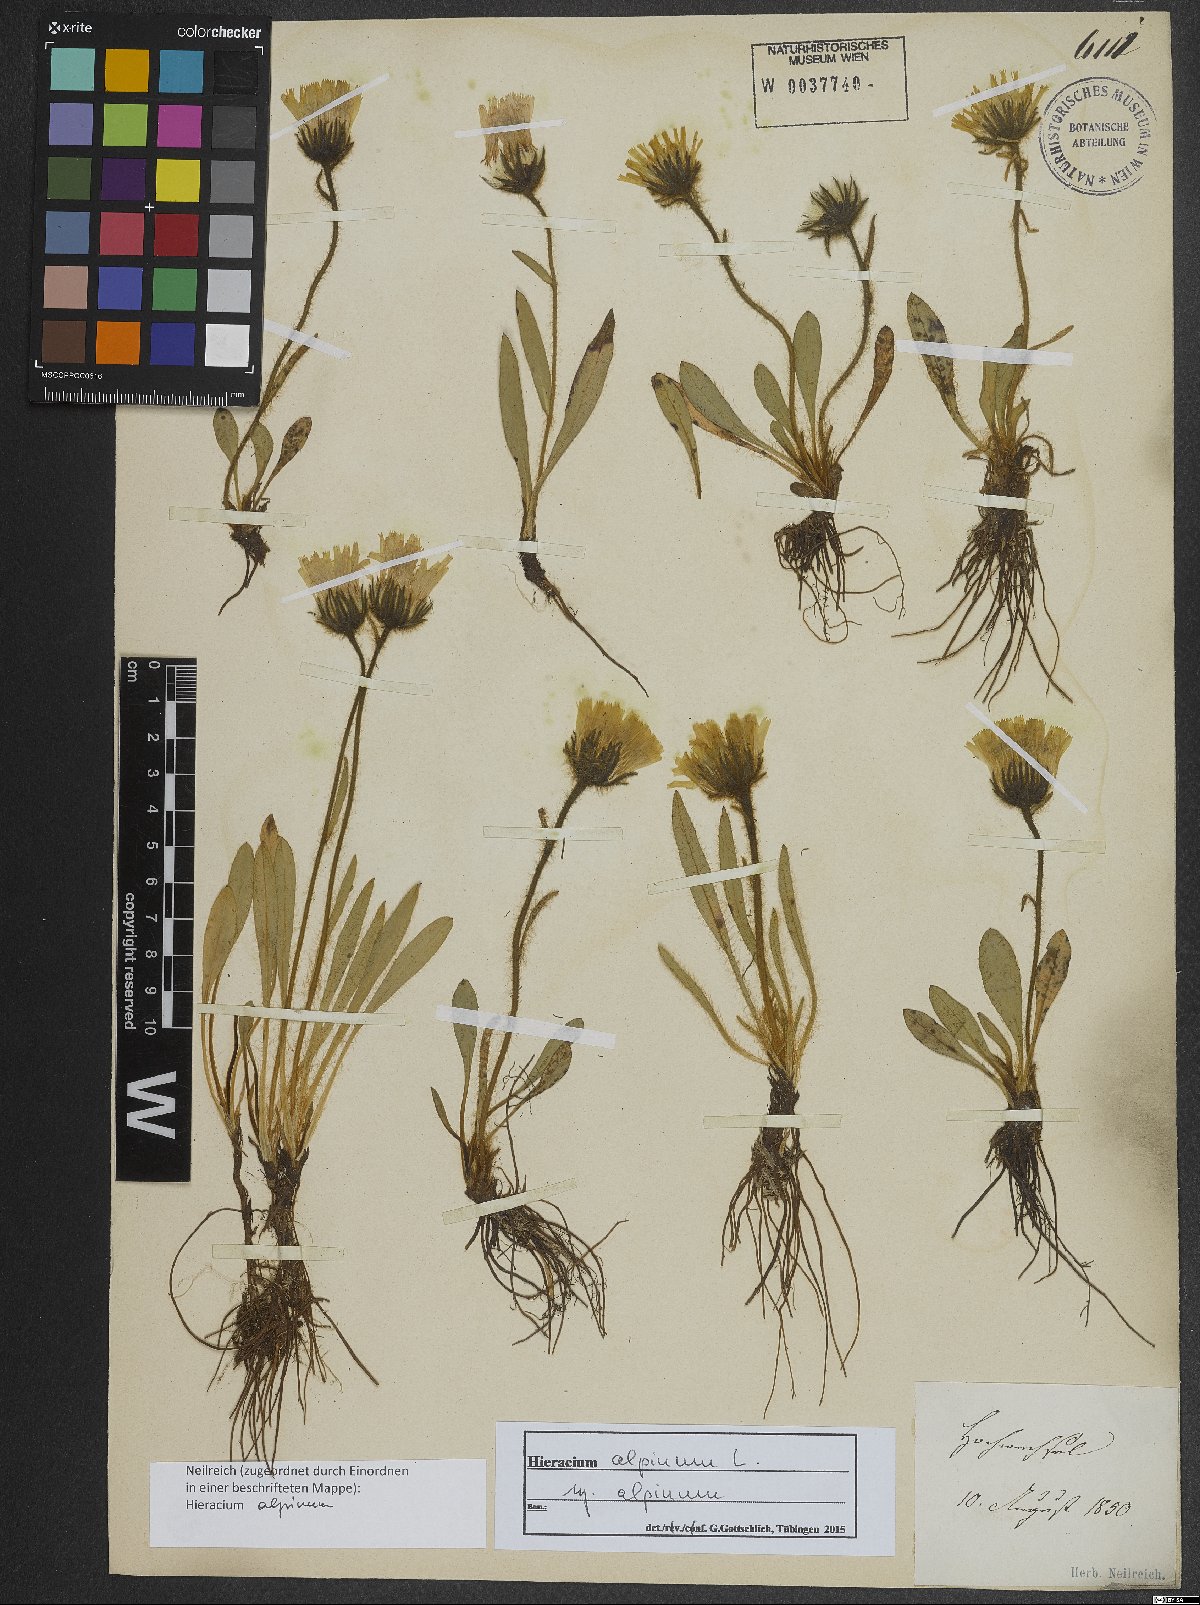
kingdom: Plantae
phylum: Tracheophyta
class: Magnoliopsida
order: Asterales
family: Asteraceae
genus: Hieracium
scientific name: Hieracium alpinum
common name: Alpine hawkweed
